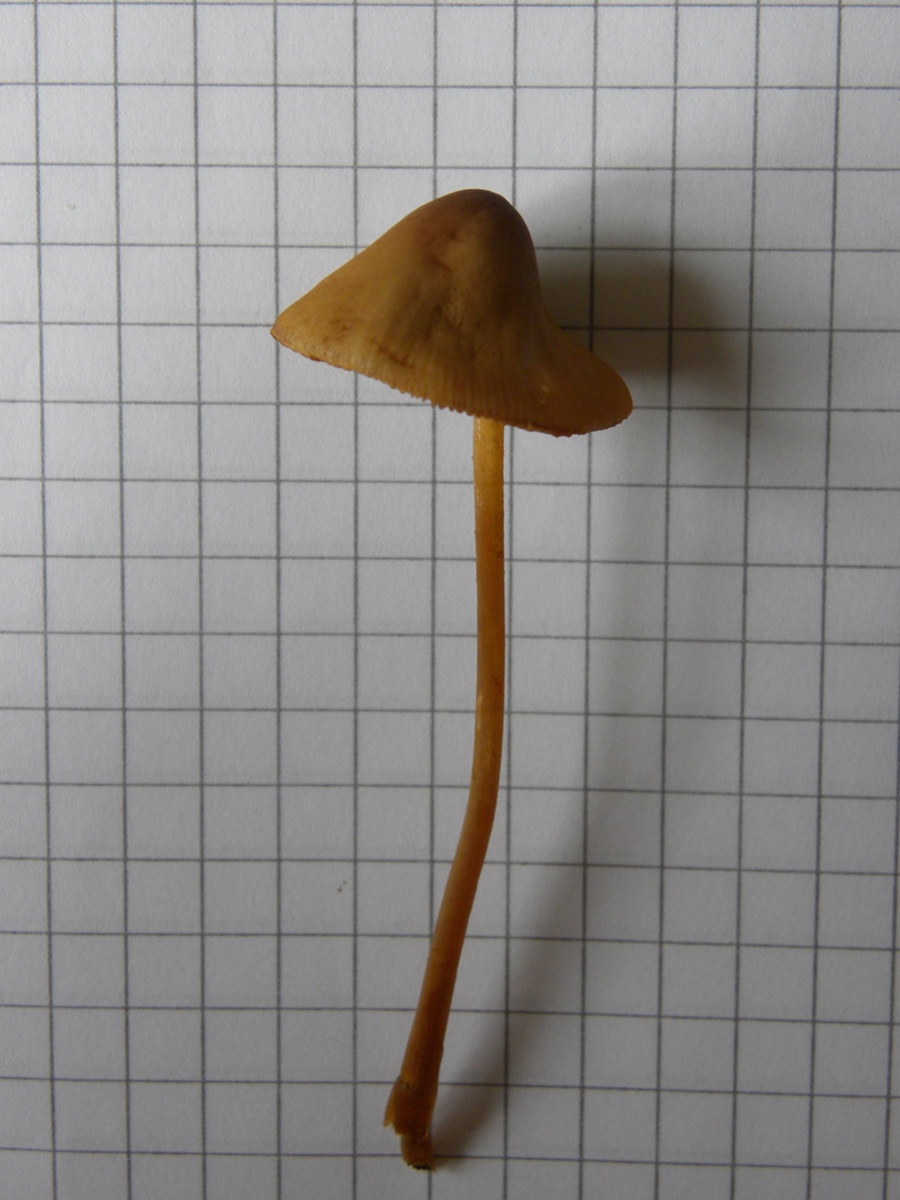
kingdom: Fungi
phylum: Basidiomycota
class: Agaricomycetes
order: Agaricales
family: Bolbitiaceae
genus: Conocybe
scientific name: Conocybe
